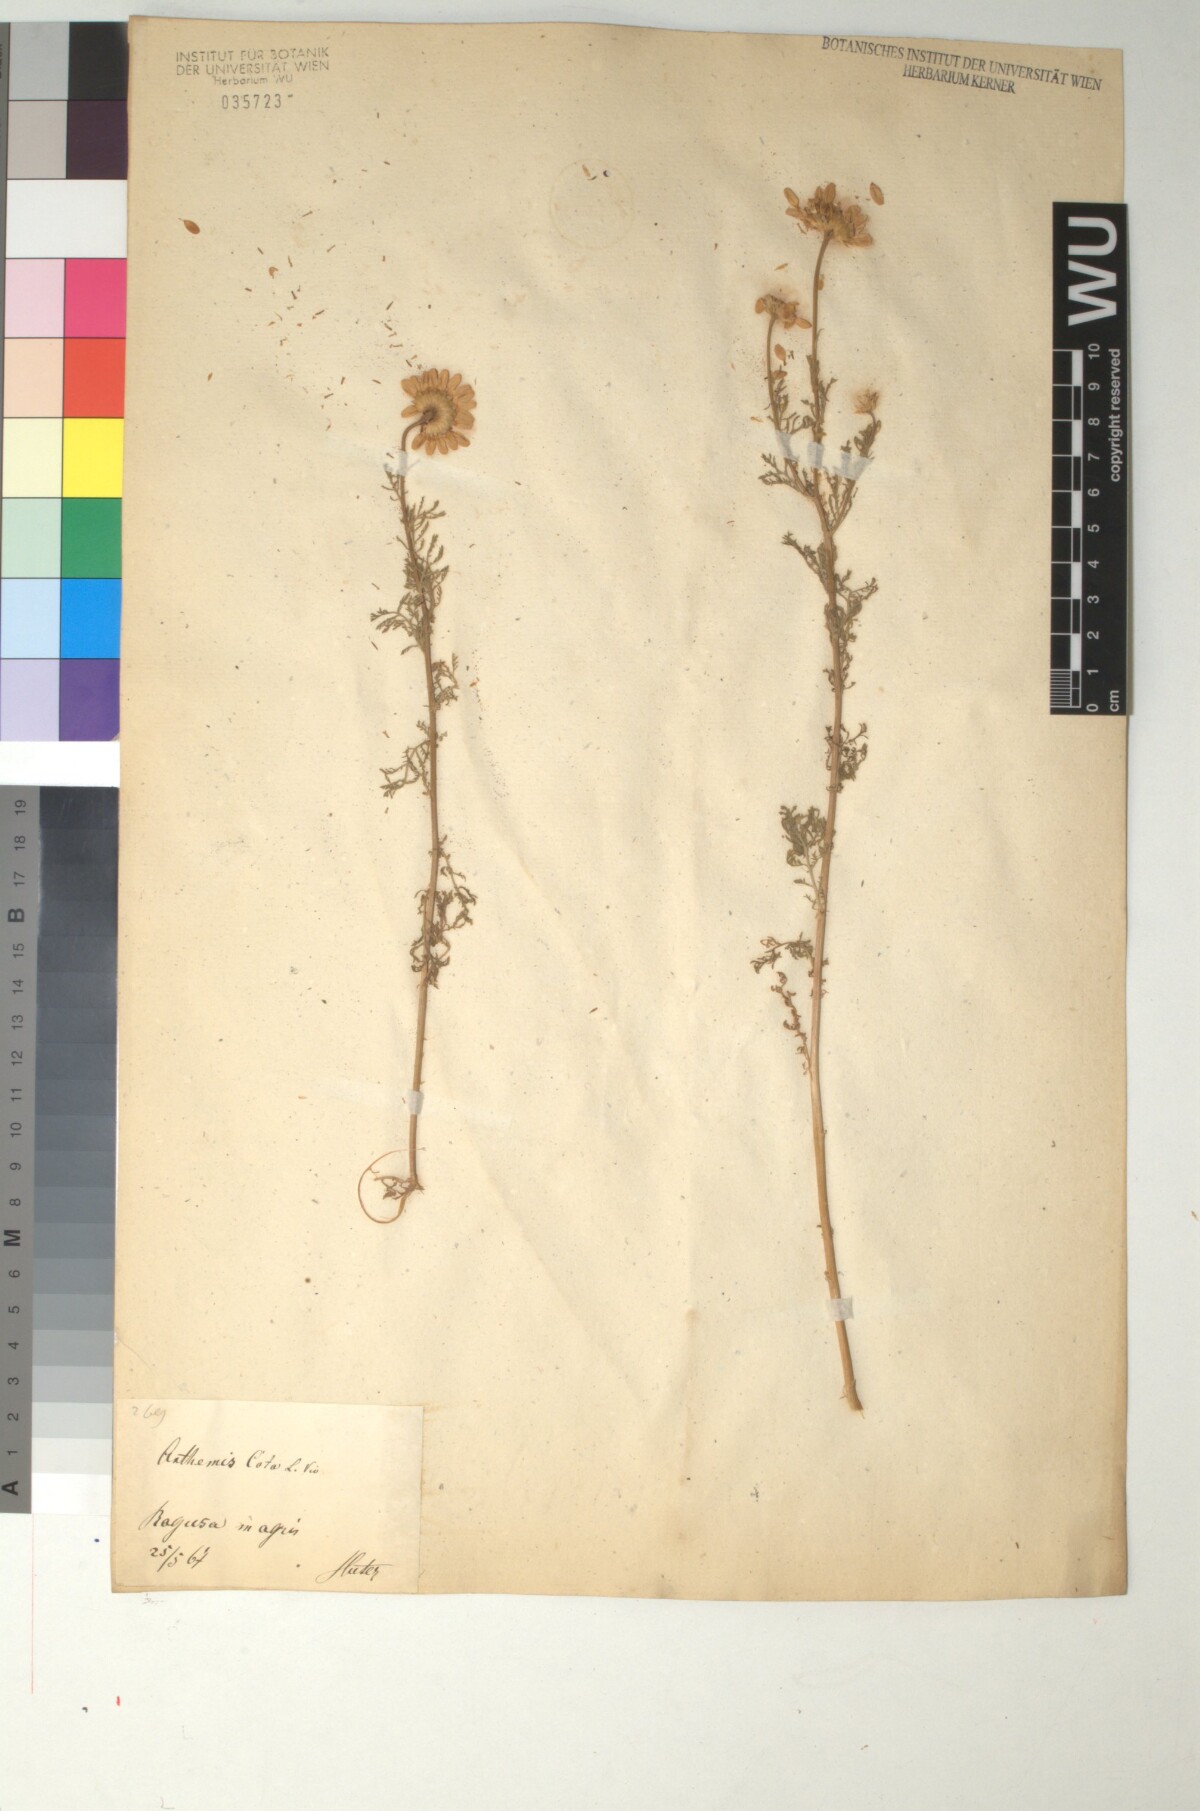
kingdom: Plantae
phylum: Tracheophyta
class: Magnoliopsida
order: Asterales
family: Asteraceae
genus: Cota
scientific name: Cota altissima
